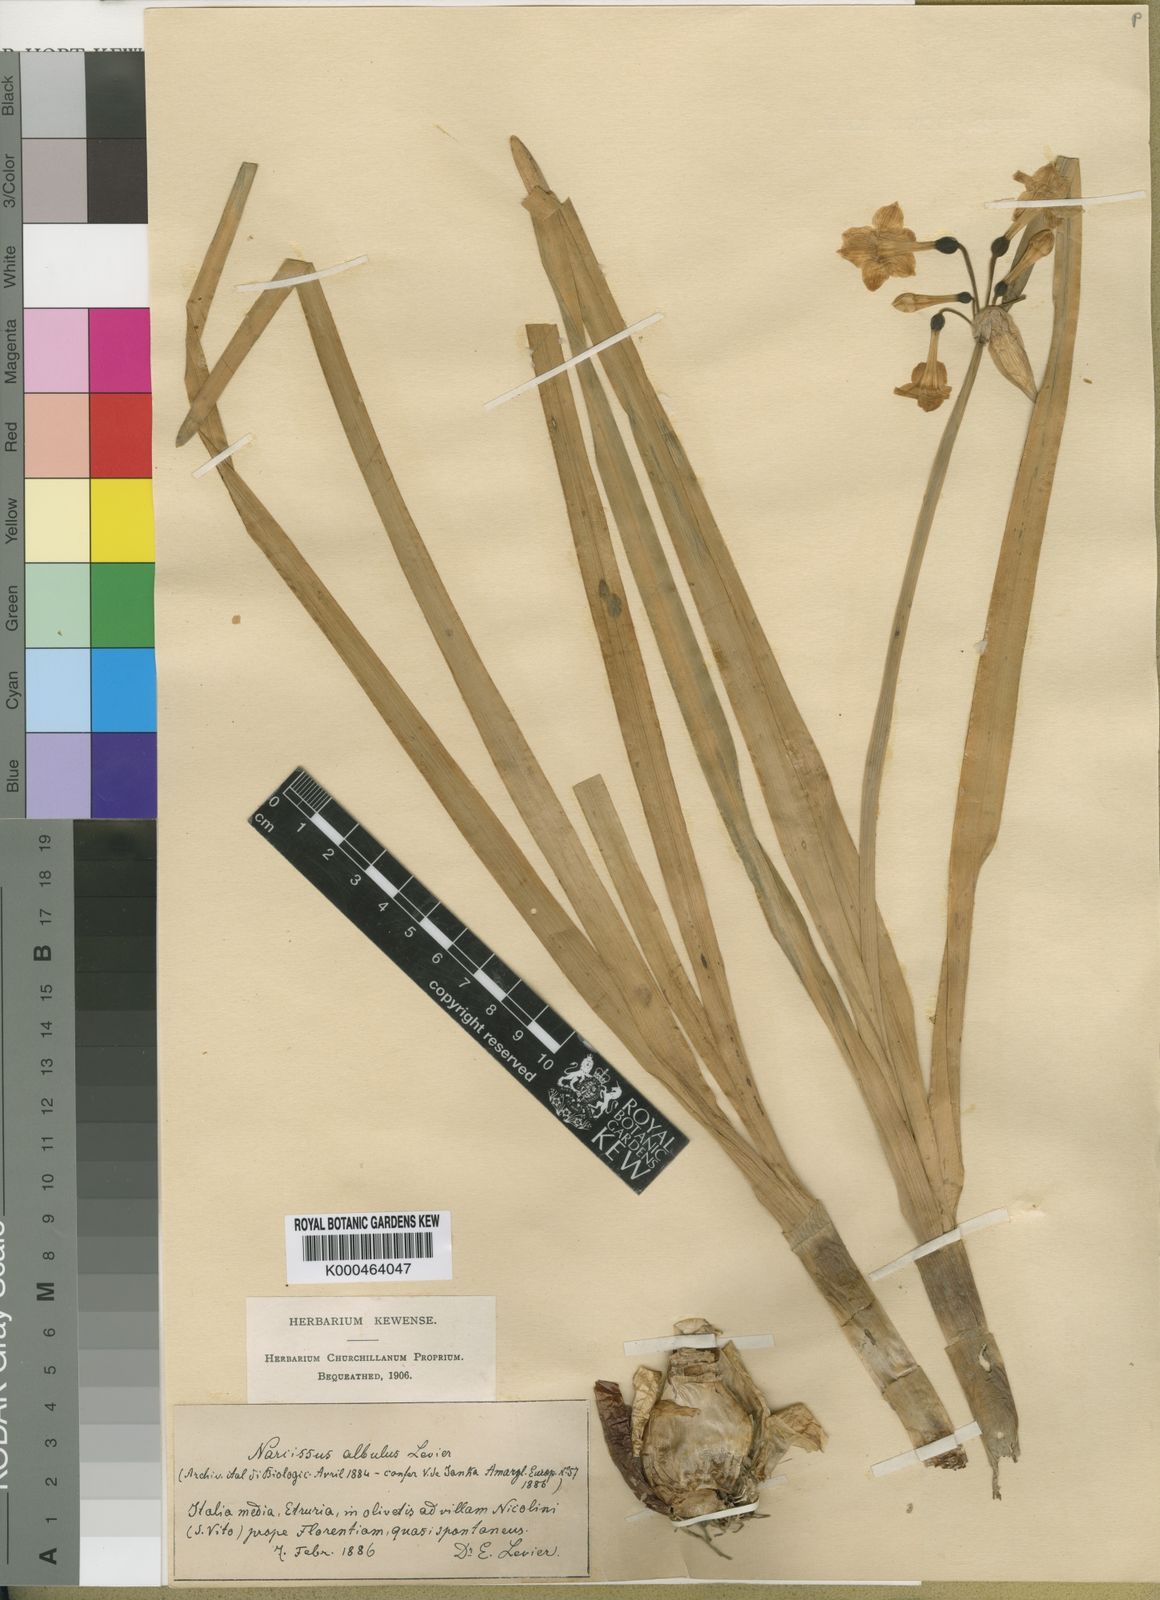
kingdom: Plantae
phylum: Tracheophyta
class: Liliopsida
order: Asparagales
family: Amaryllidaceae
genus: Narcissus
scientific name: Narcissus papyraceus
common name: Paper-white daffodil
